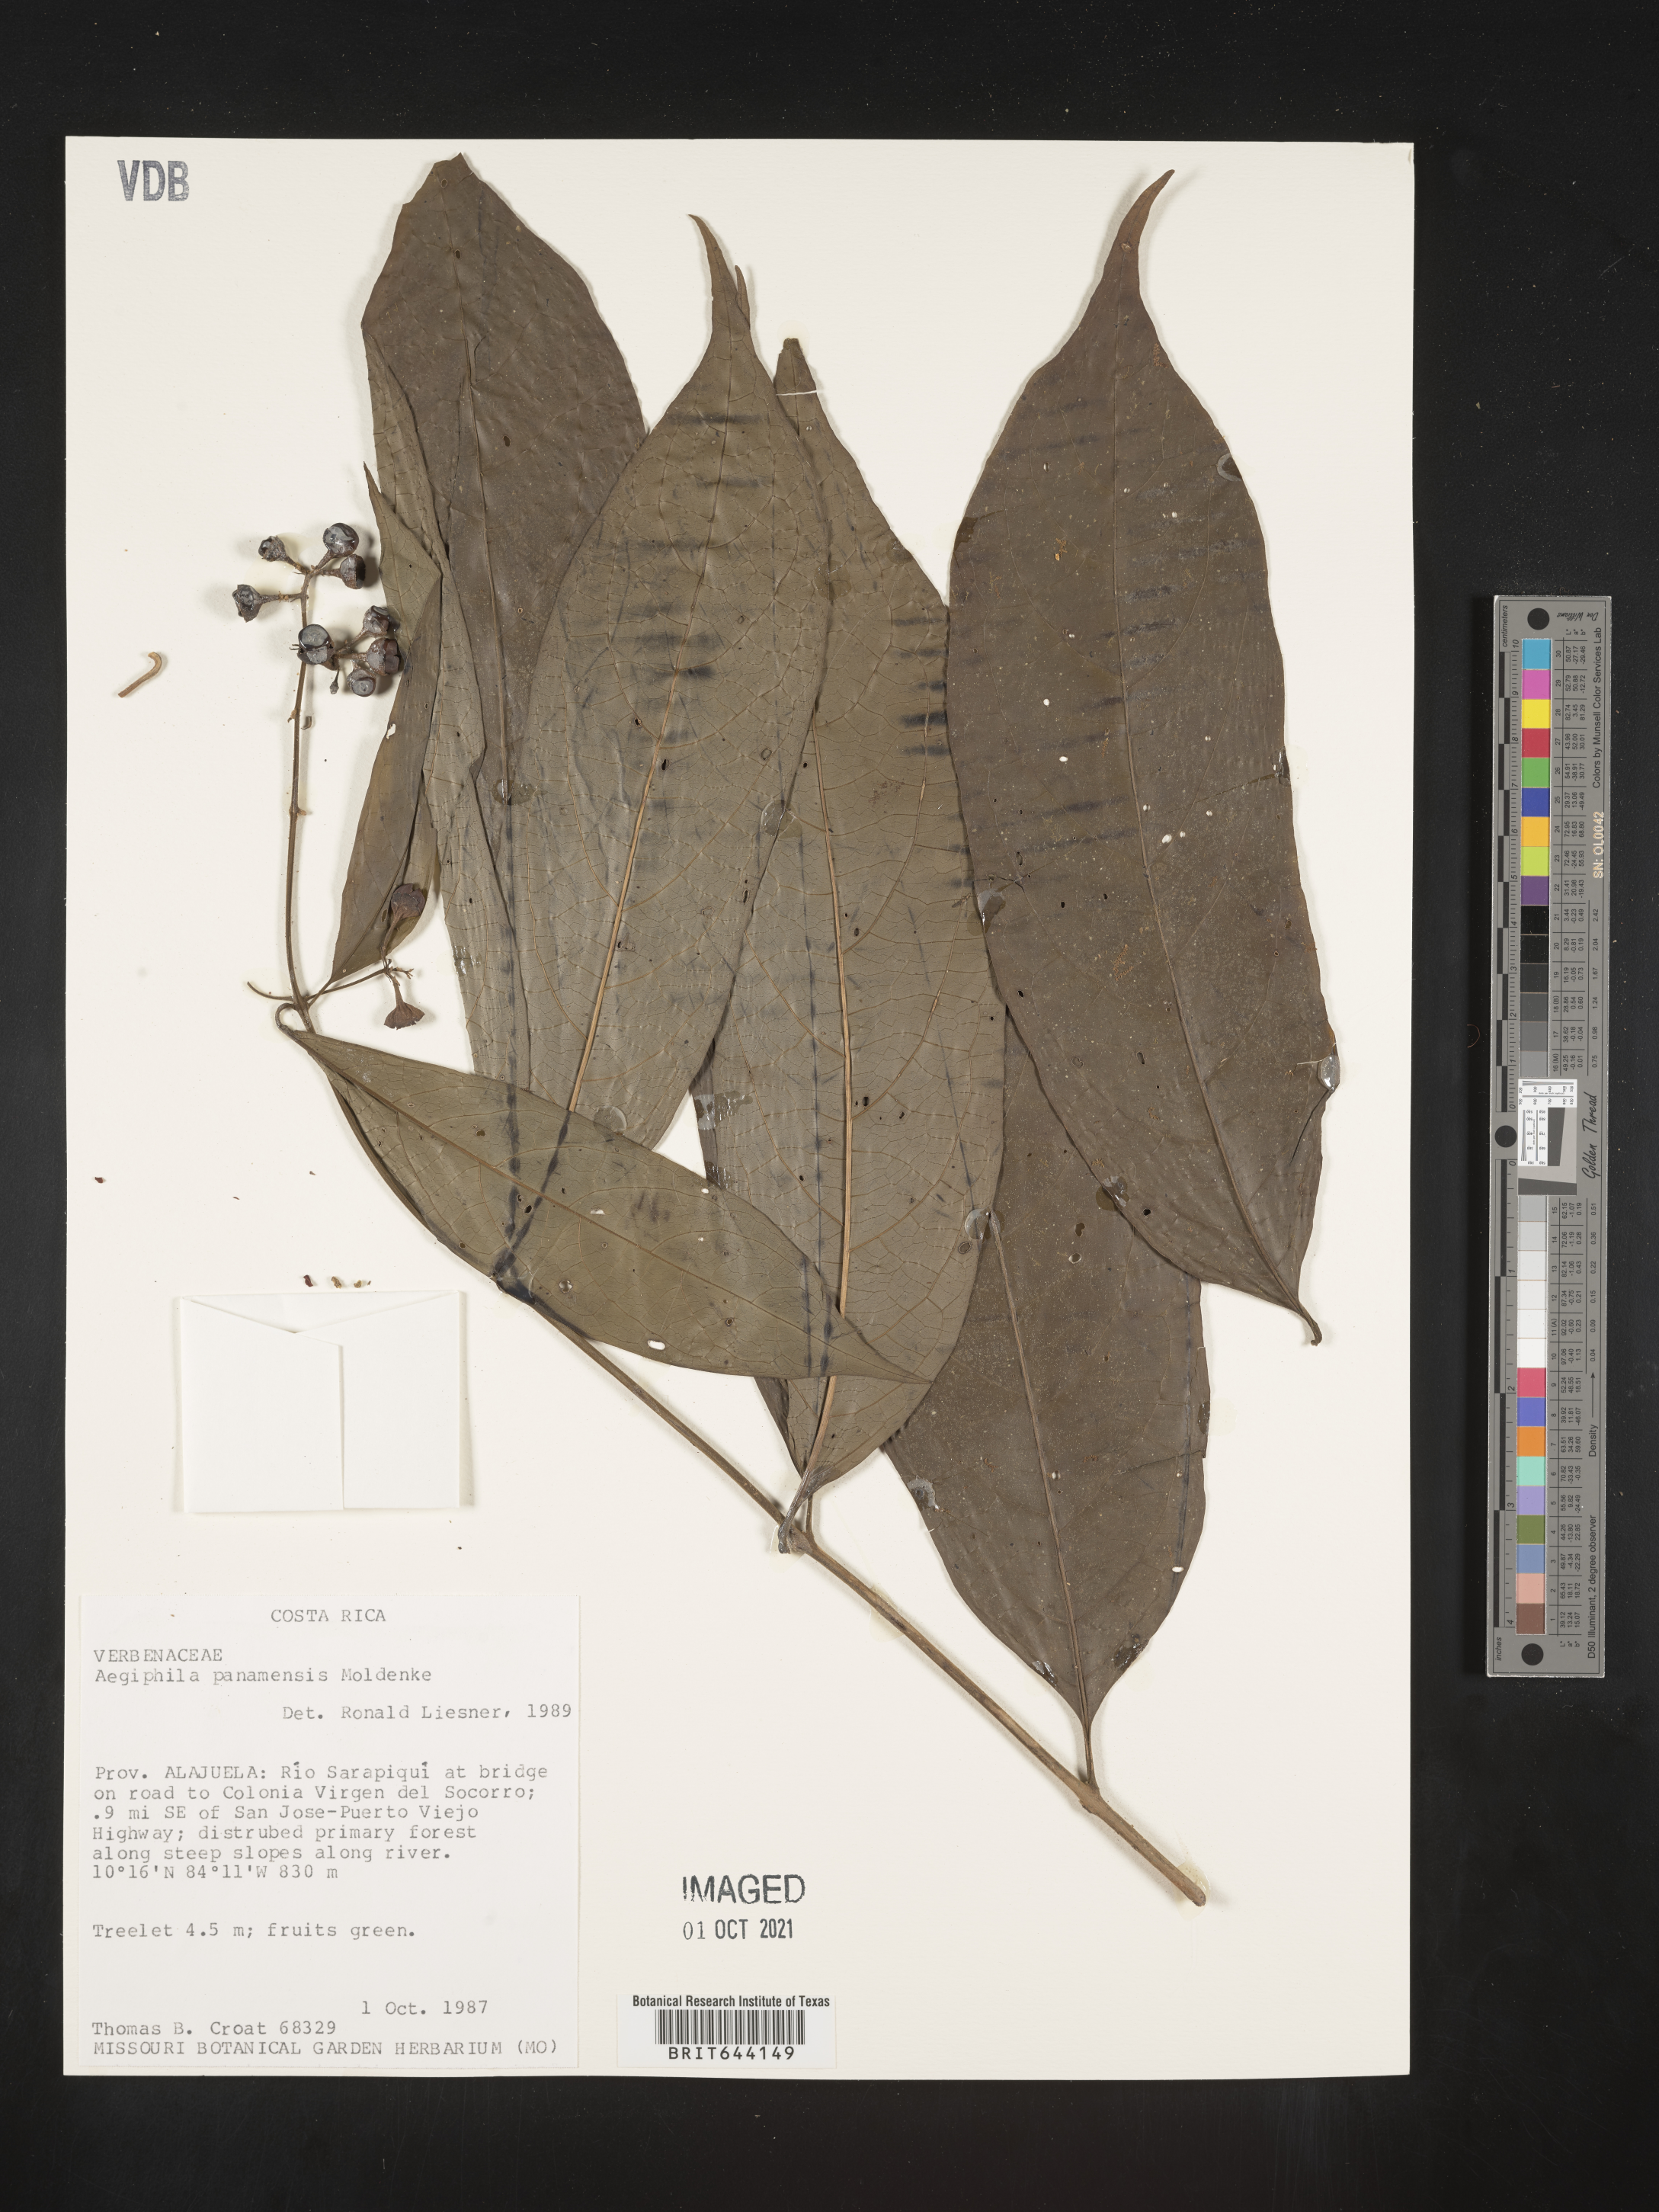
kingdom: Plantae
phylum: Tracheophyta
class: Magnoliopsida
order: Lamiales
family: Lamiaceae
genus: Aegiphila
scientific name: Aegiphila
